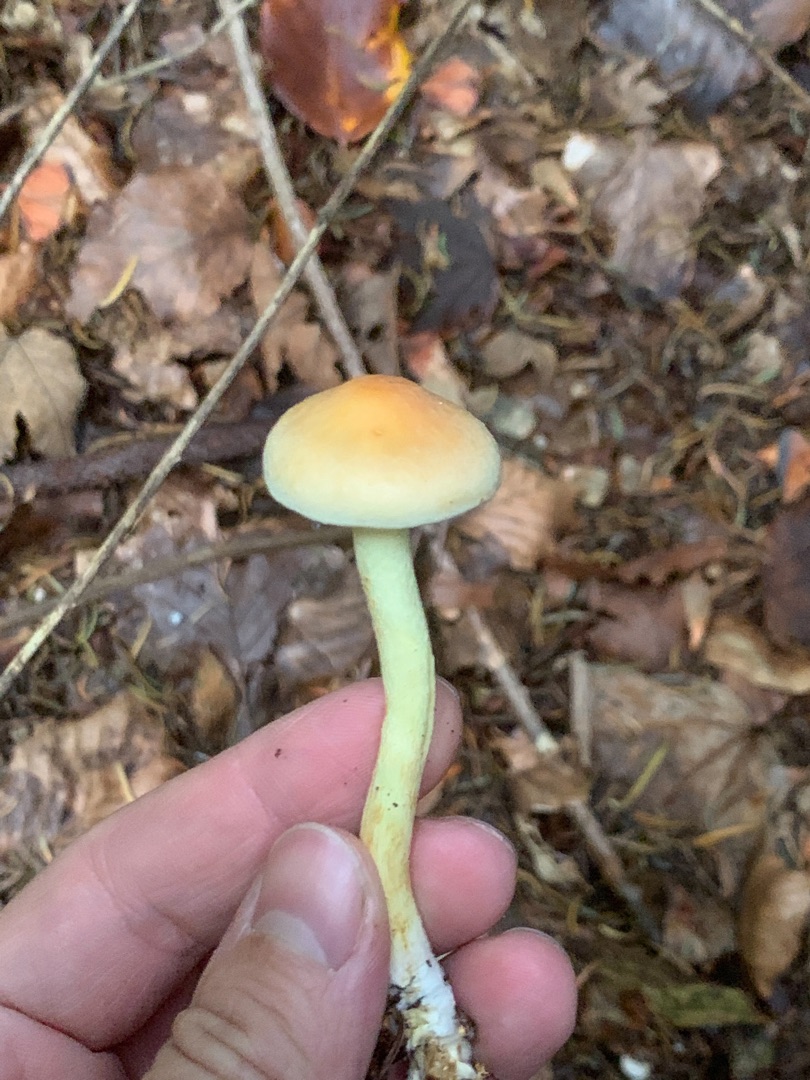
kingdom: Fungi
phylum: Basidiomycota
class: Agaricomycetes
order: Agaricales
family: Strophariaceae
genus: Hypholoma
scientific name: Hypholoma fasciculare
